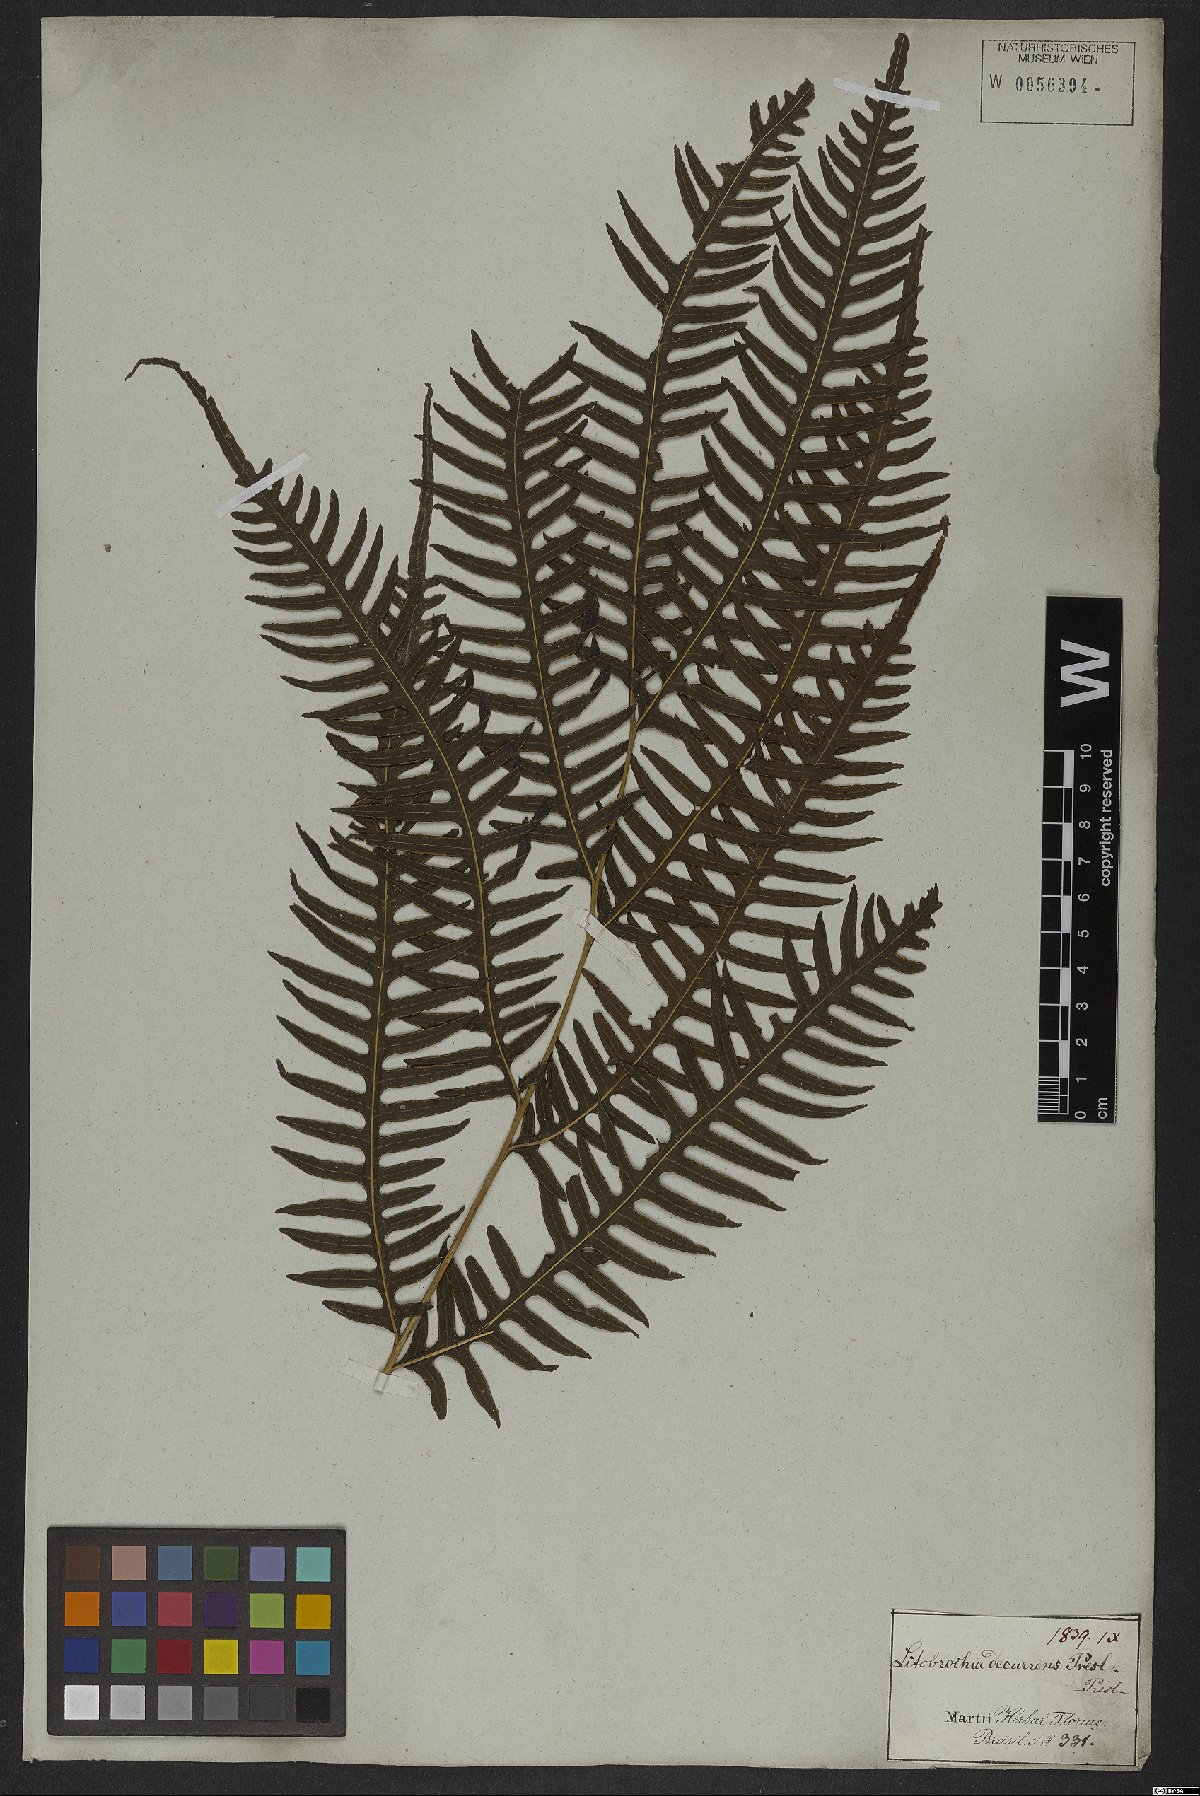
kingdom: Plantae
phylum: Tracheophyta
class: Polypodiopsida
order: Polypodiales
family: Pteridaceae
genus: Pteris
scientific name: Pteris decurrens
